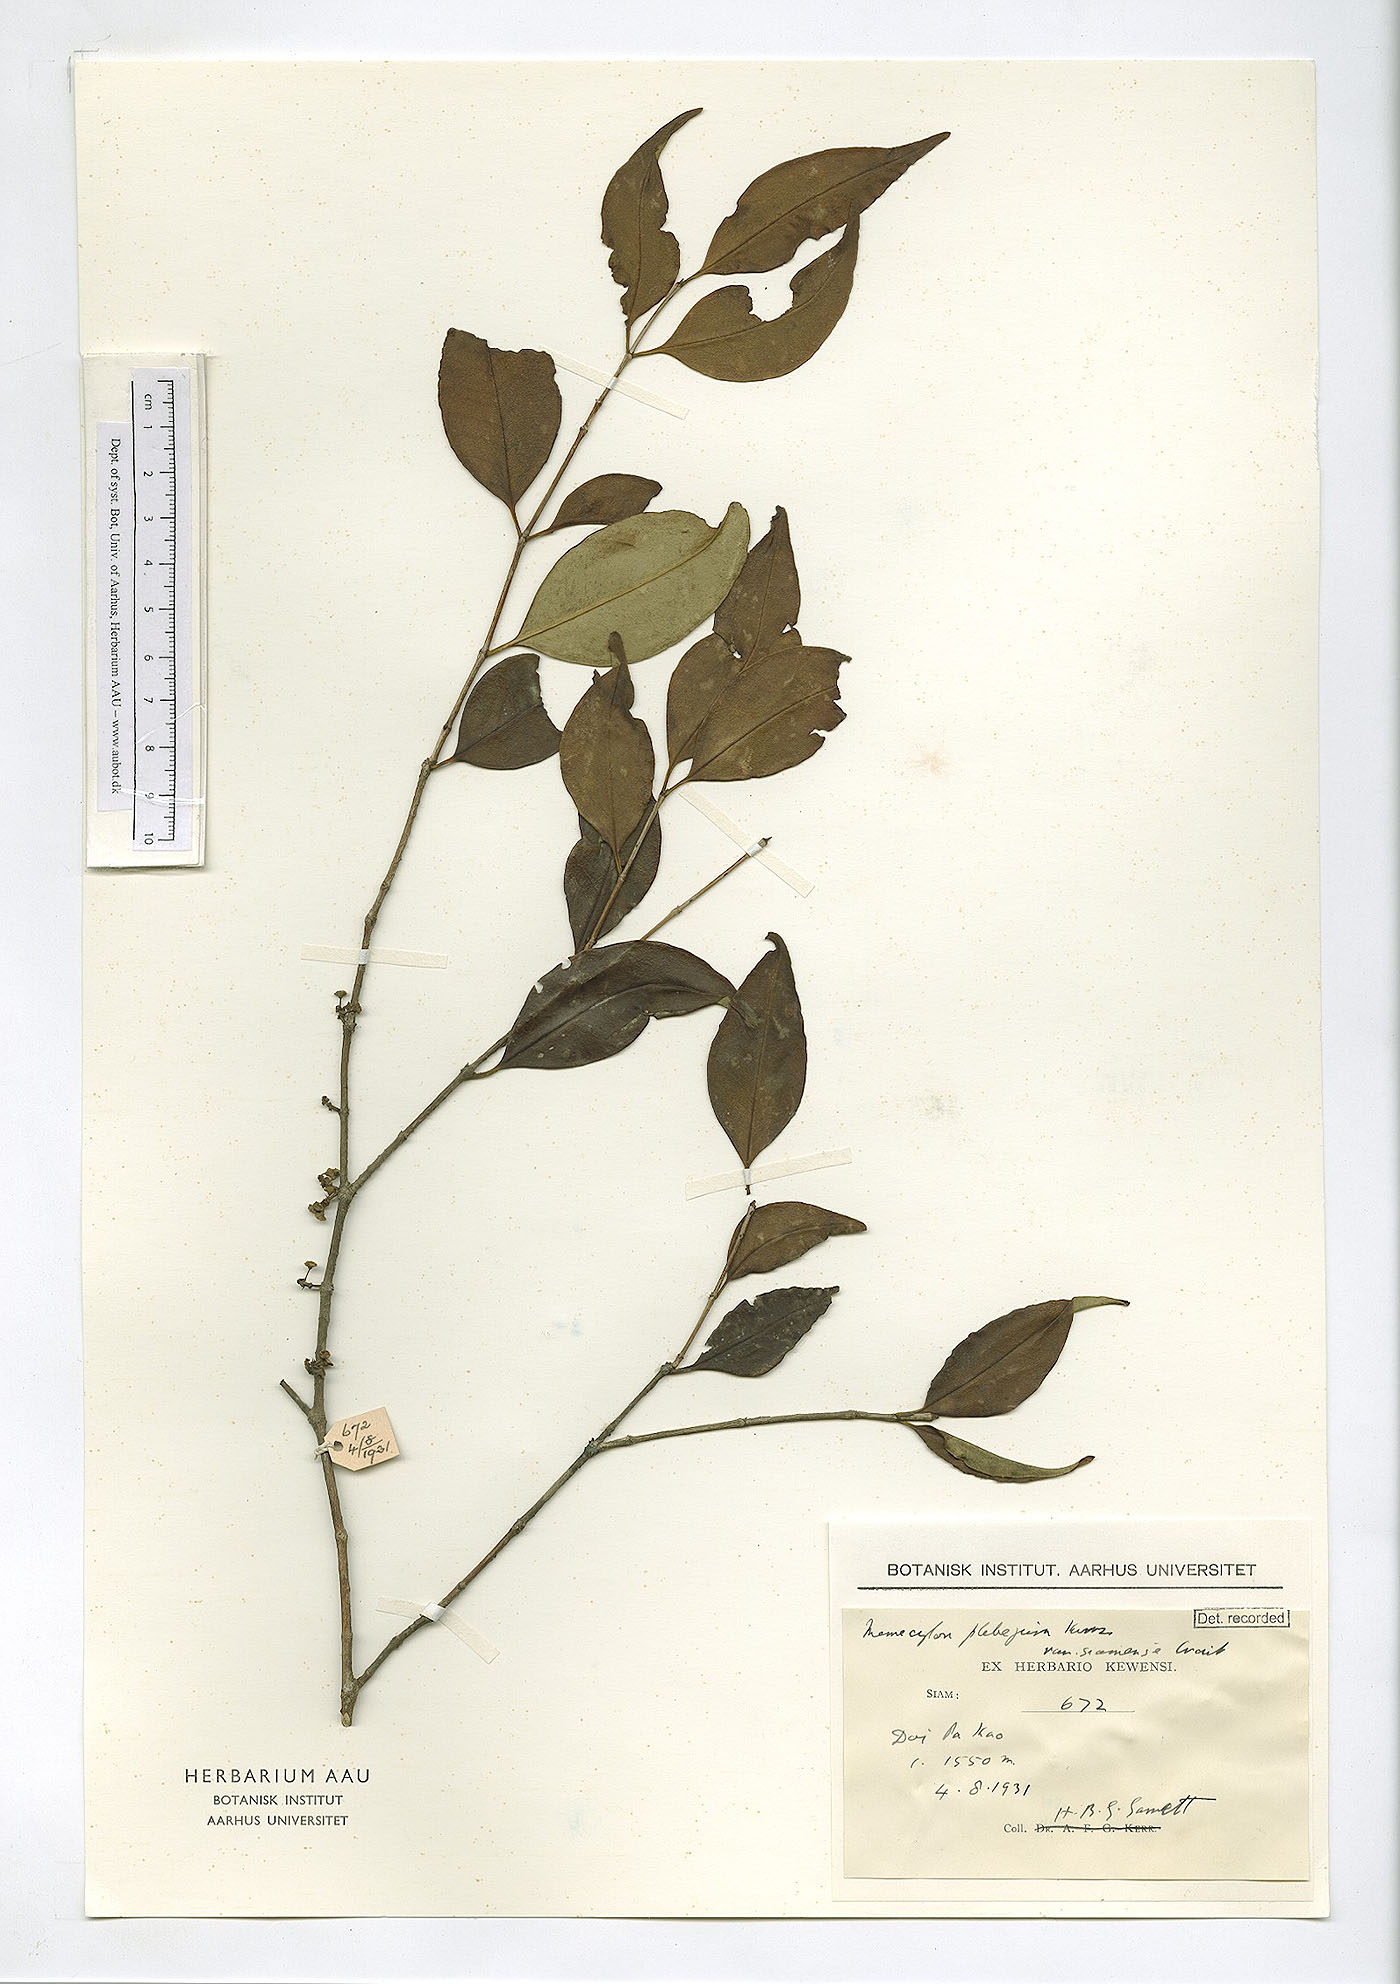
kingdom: Plantae
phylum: Tracheophyta
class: Magnoliopsida
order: Myrtales
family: Melastomataceae
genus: Memecylon
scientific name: Memecylon plebejum
